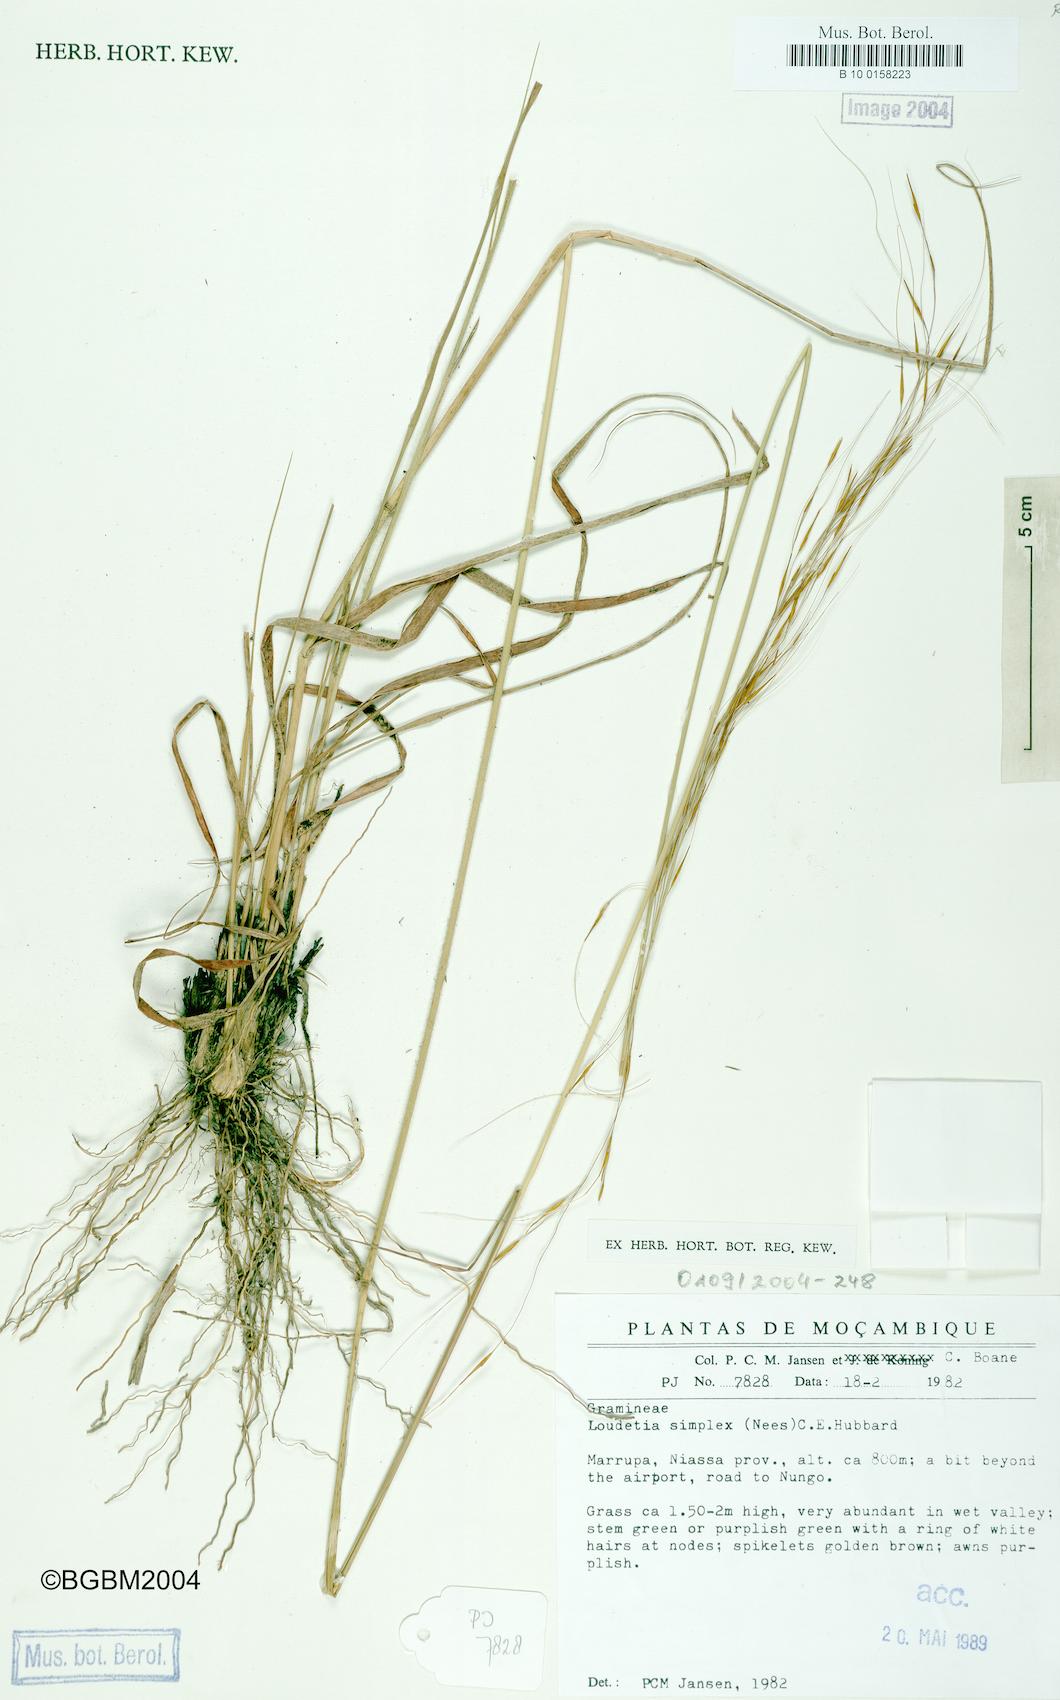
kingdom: Plantae
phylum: Tracheophyta
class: Liliopsida
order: Poales
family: Poaceae
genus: Loudetia
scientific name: Loudetia simplex
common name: Common russet grass
